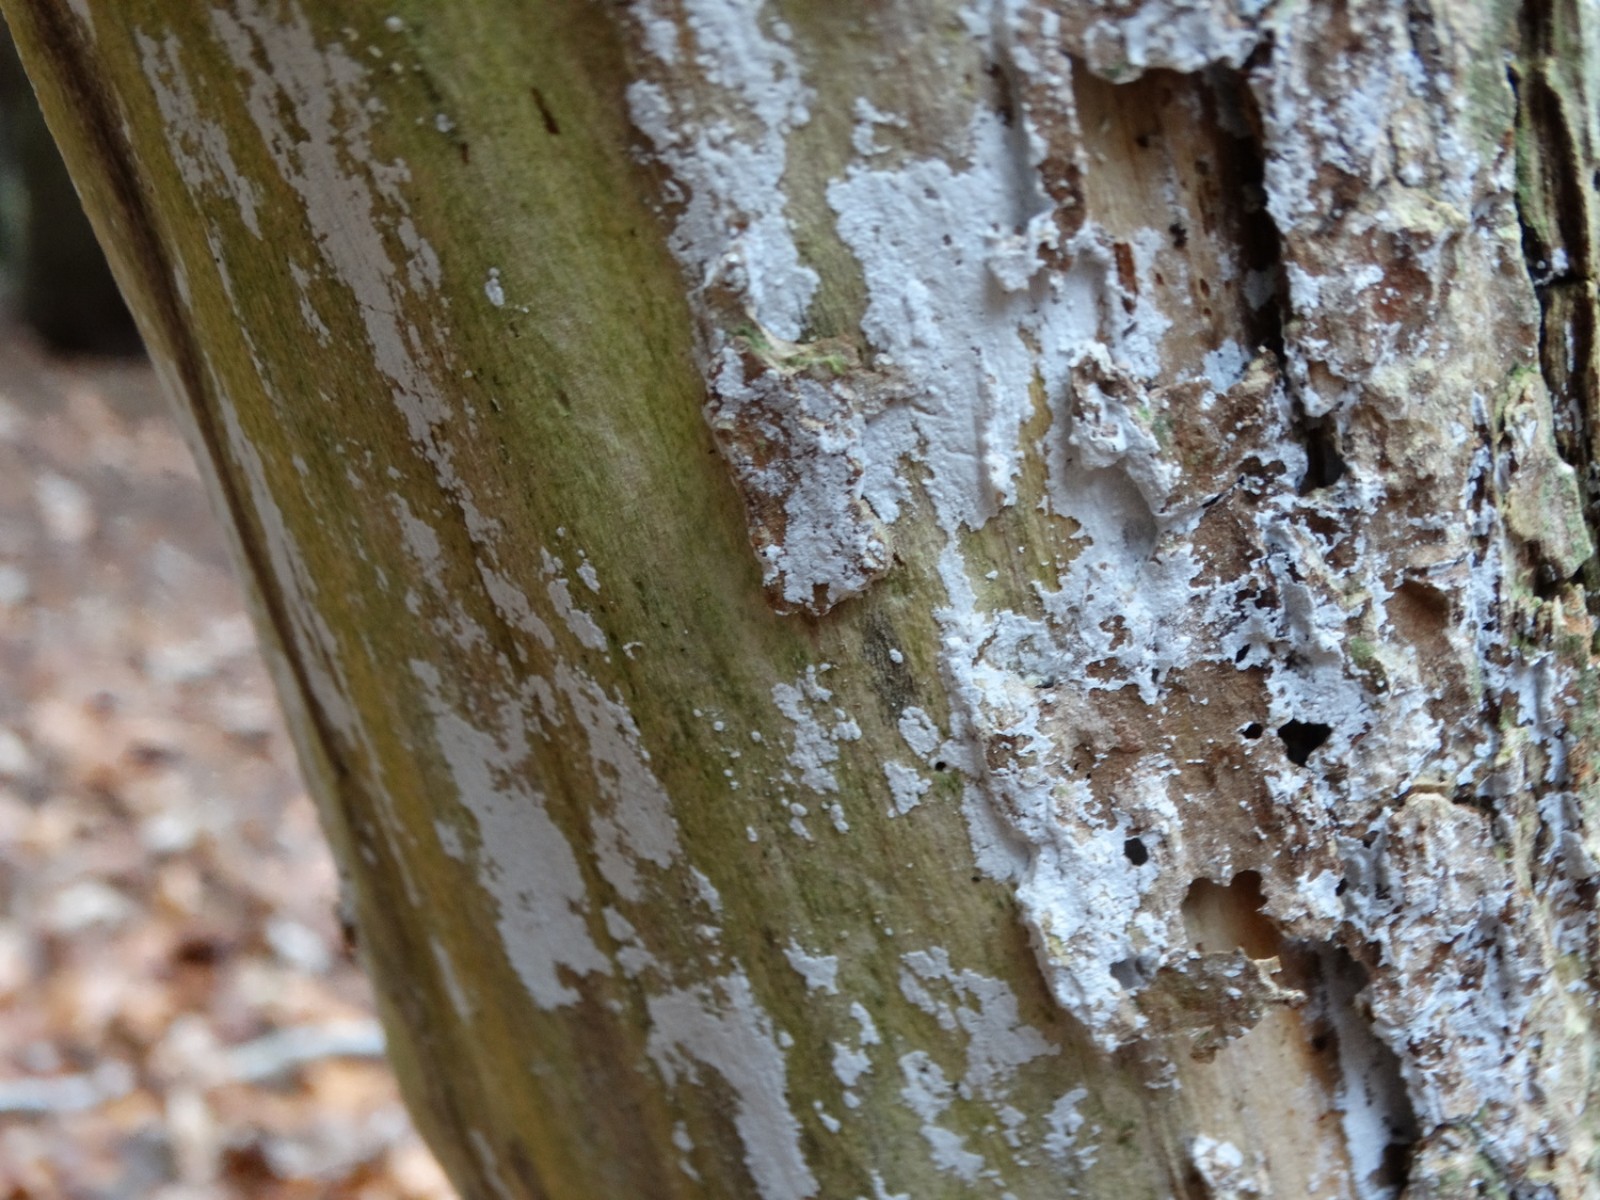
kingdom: Fungi
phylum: Basidiomycota
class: Agaricomycetes
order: Corticiales
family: Corticiaceae
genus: Lyomyces
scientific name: Lyomyces sambuci
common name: almindelig hyldehinde
